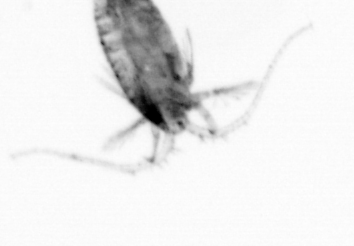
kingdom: Animalia
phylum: Arthropoda
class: Copepoda
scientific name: Copepoda
